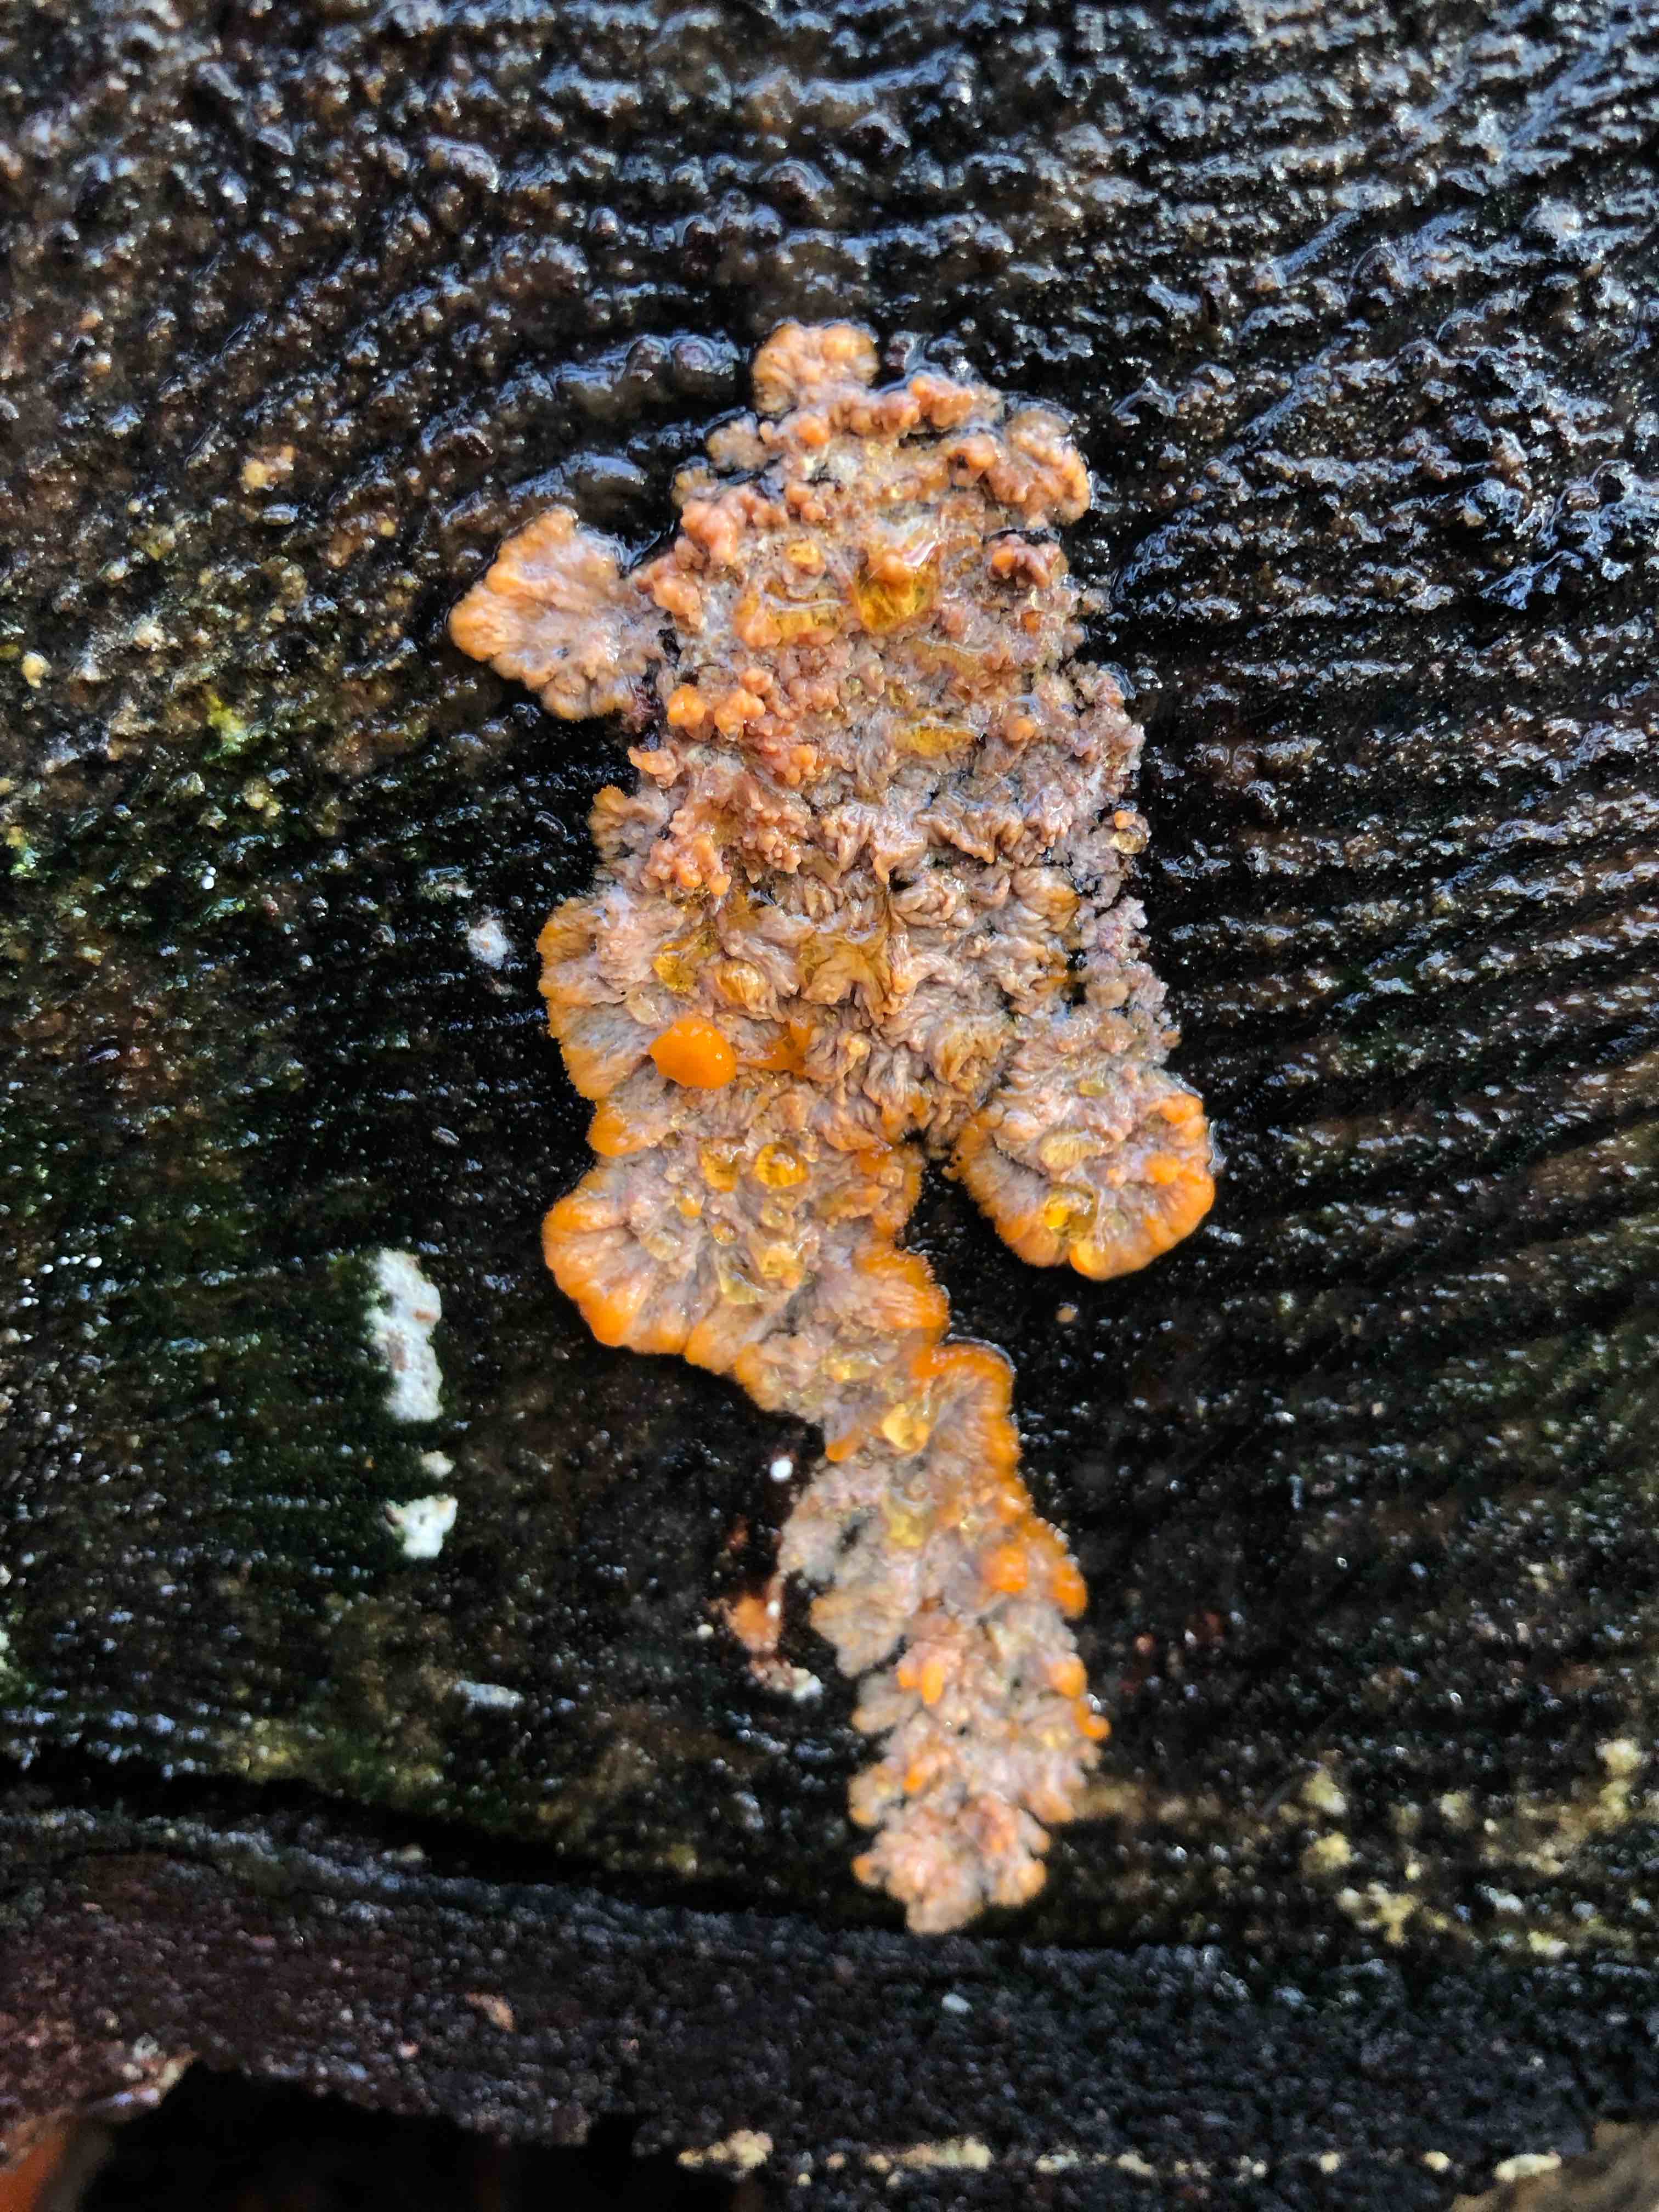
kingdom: Fungi
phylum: Basidiomycota
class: Agaricomycetes
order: Polyporales
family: Meruliaceae
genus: Phlebia
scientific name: Phlebia radiata
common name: stråle-åresvamp
